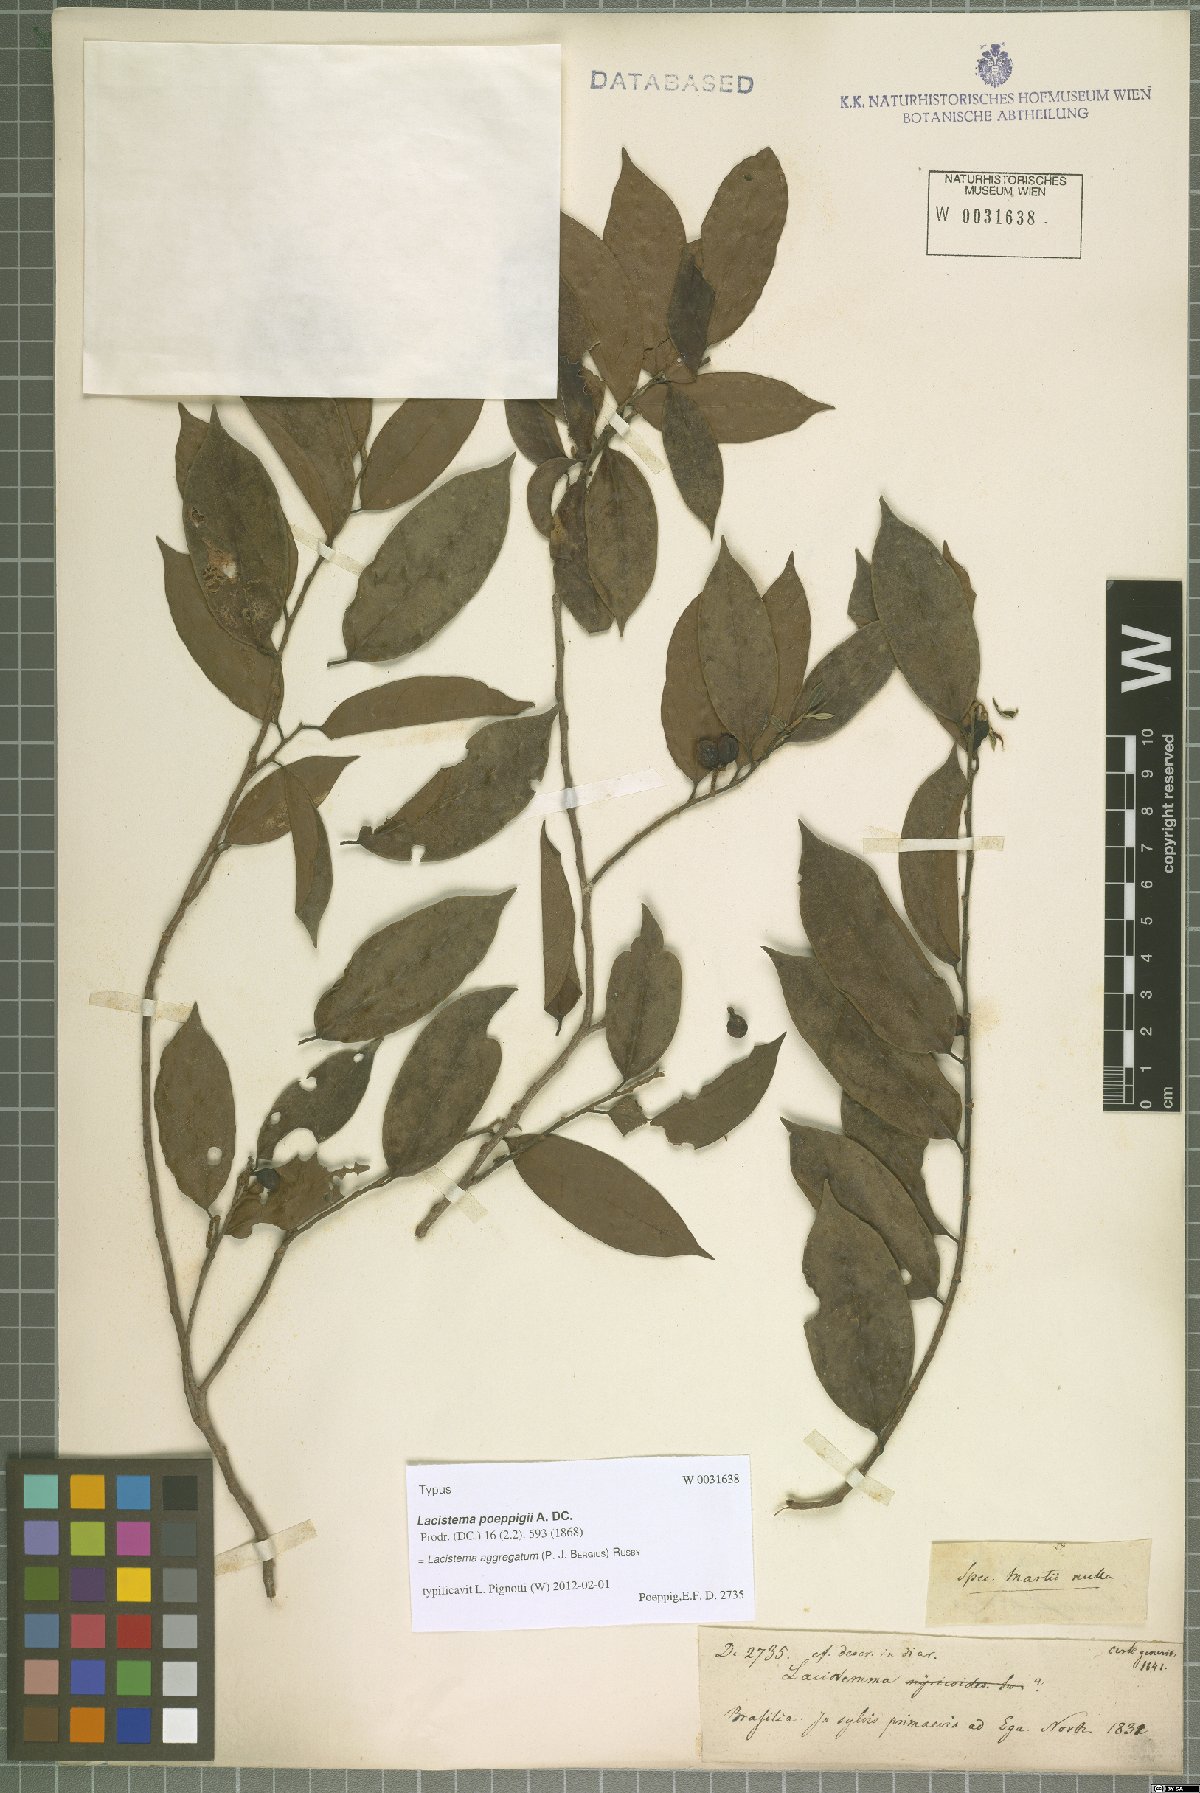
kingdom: Plantae
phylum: Tracheophyta
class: Magnoliopsida
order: Malpighiales
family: Lacistemataceae
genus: Lacistema
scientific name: Lacistema aggregatum
